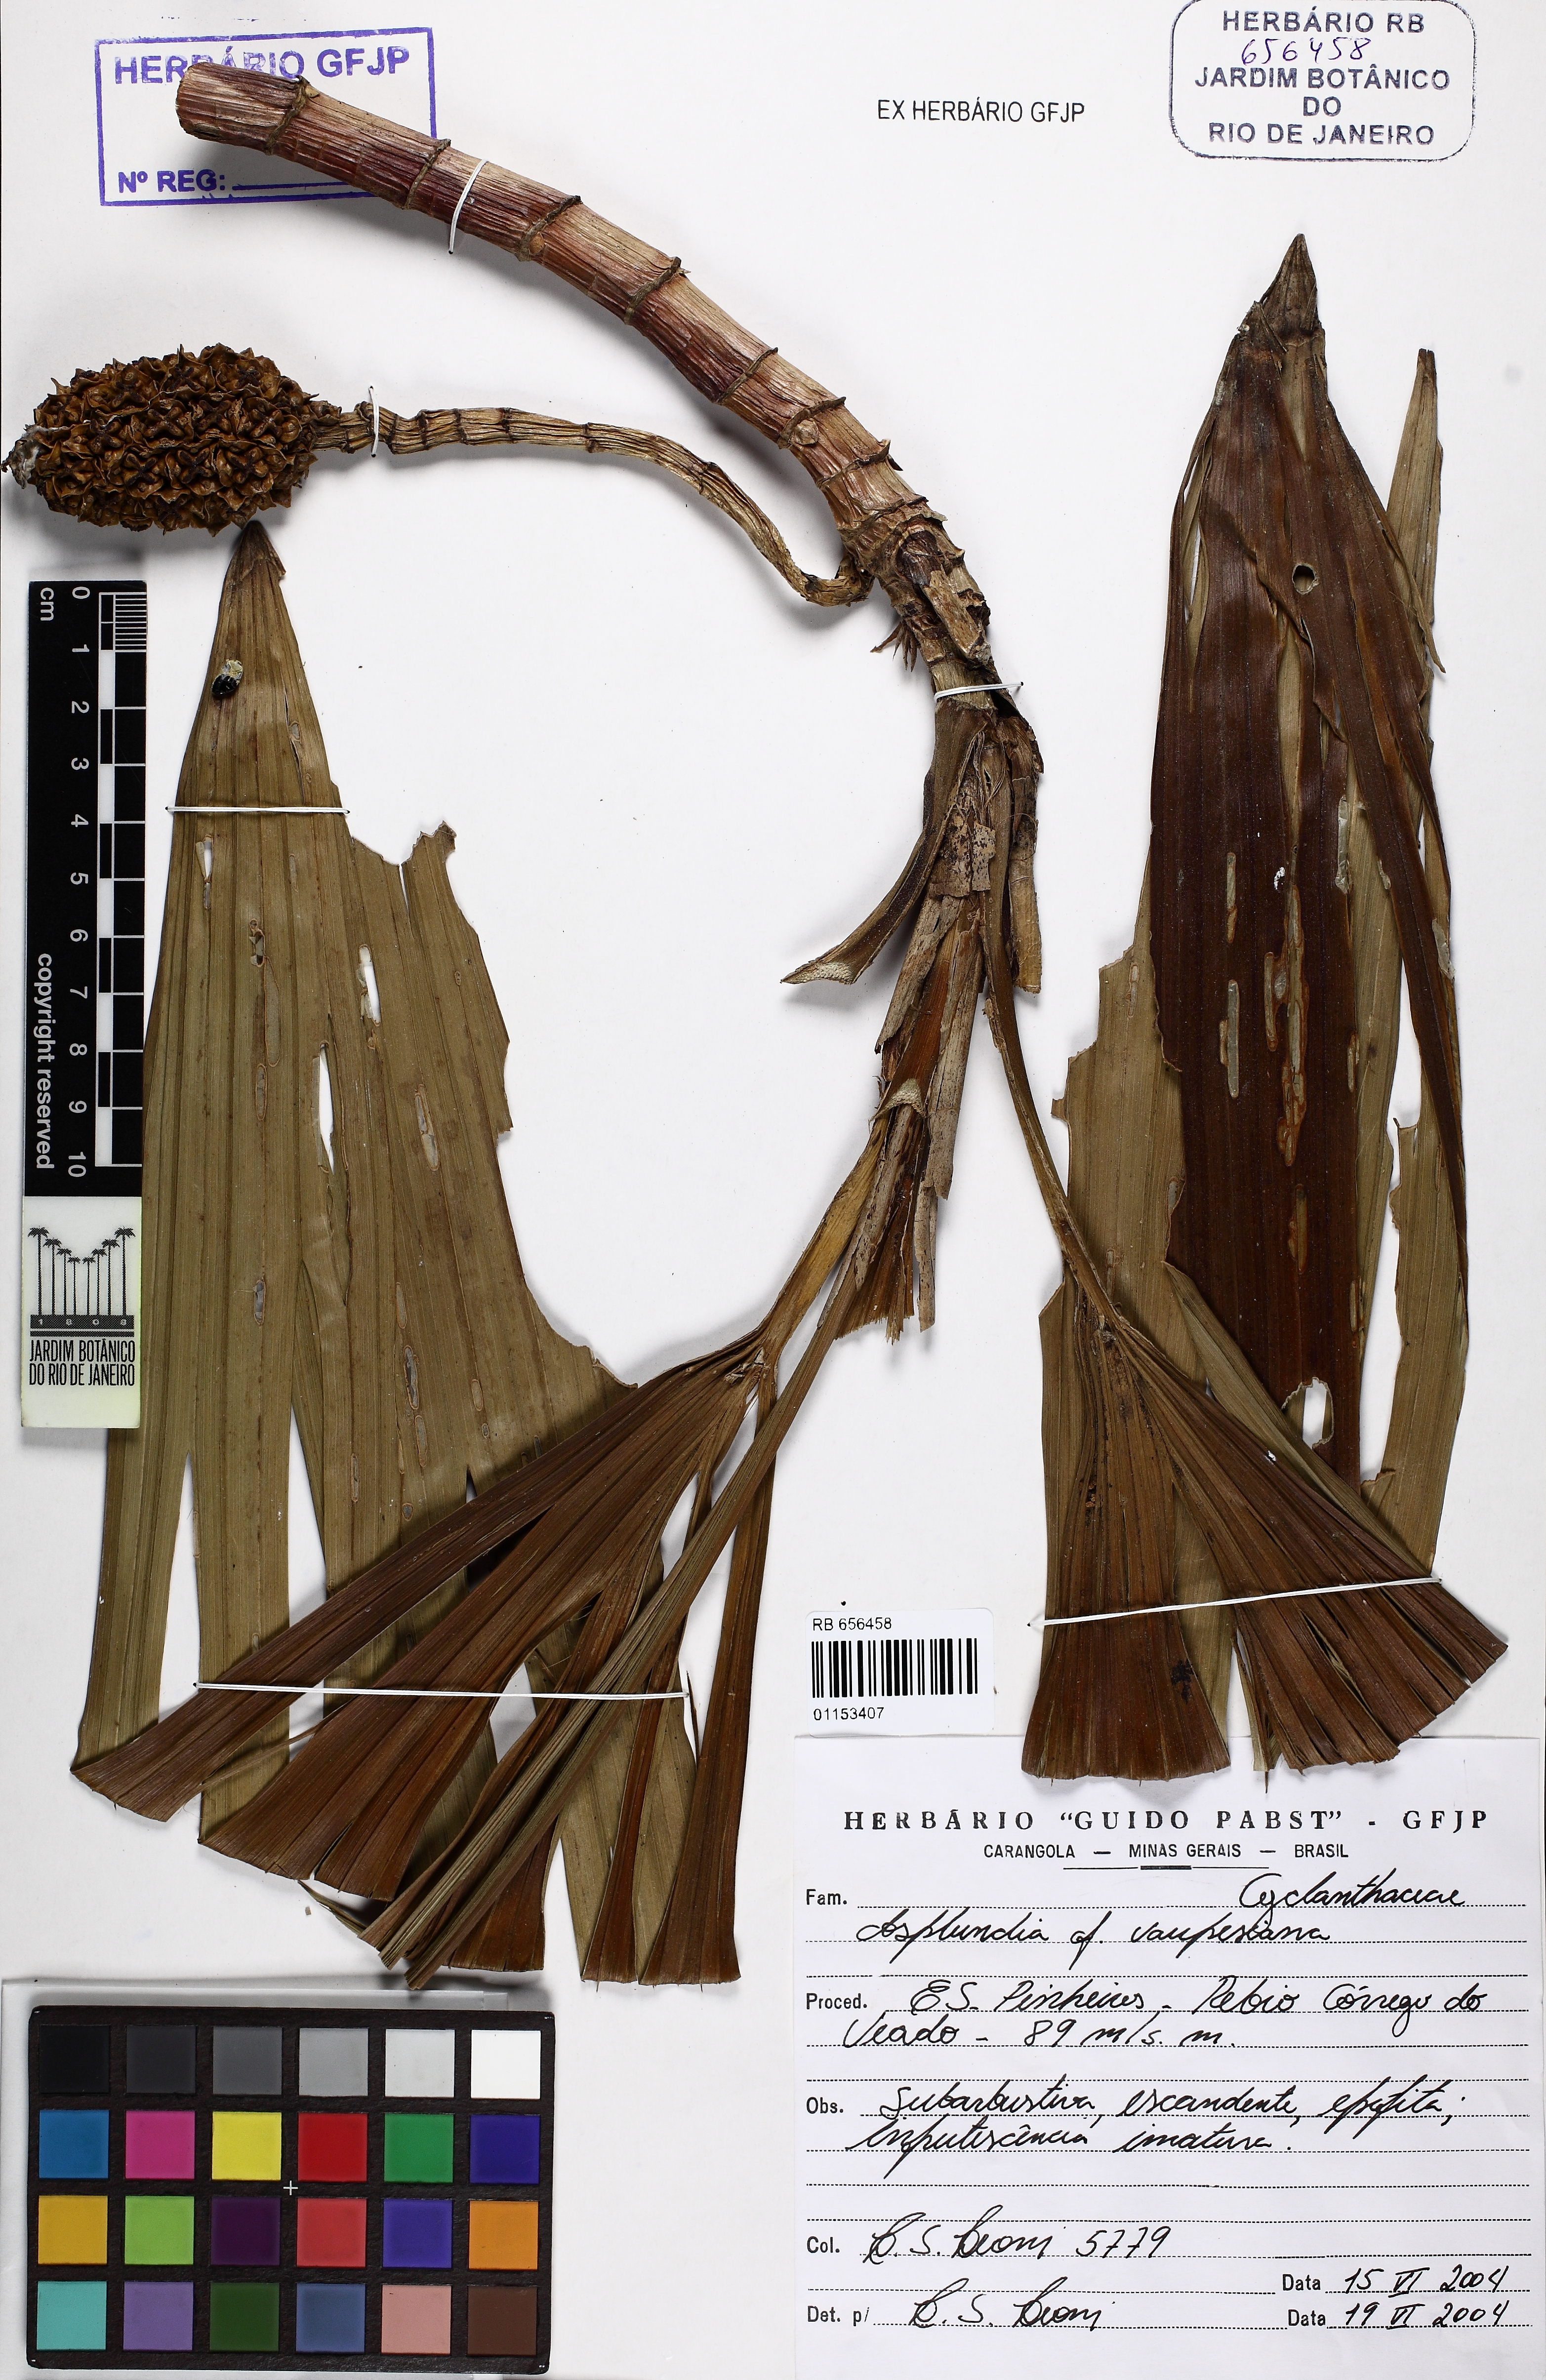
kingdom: Plantae
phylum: Tracheophyta
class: Liliopsida
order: Pandanales
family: Cyclanthaceae
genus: Thoracocarpus
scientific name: Thoracocarpus bissectus
